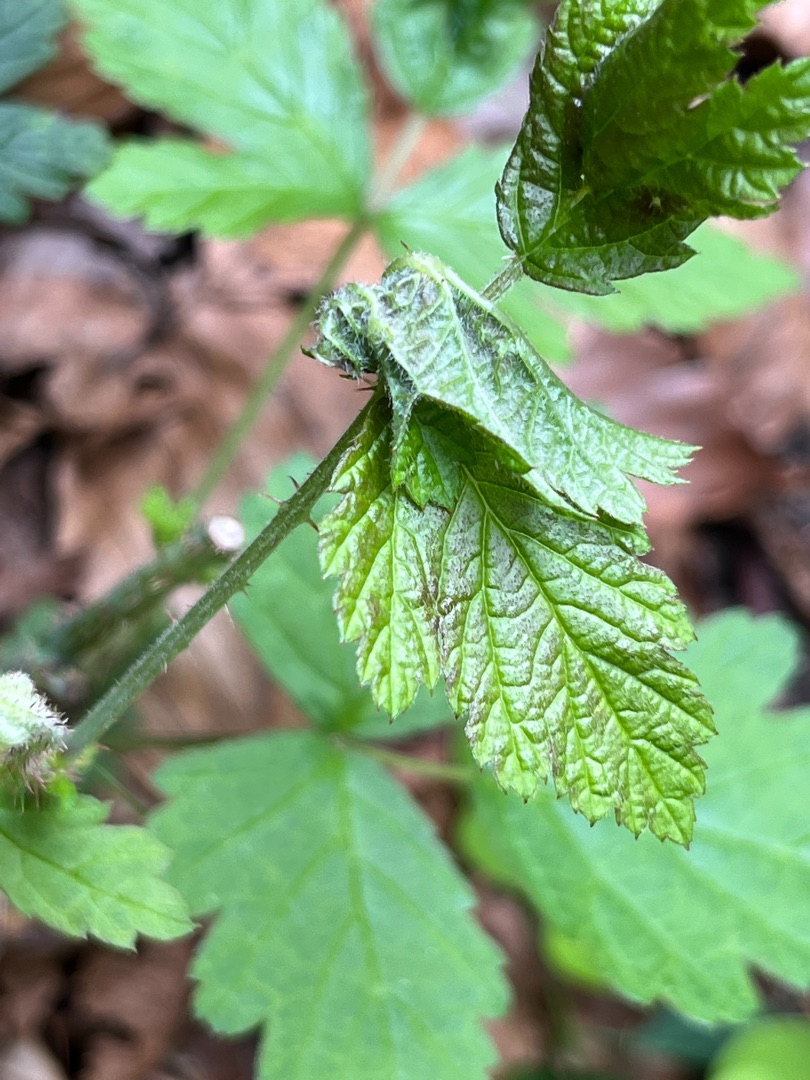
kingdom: Animalia
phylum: Arthropoda
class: Insecta
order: Diptera
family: Cecidomyiidae
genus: Dasineura
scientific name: Dasineura plicatrix
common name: Brombærbladgalmyg
